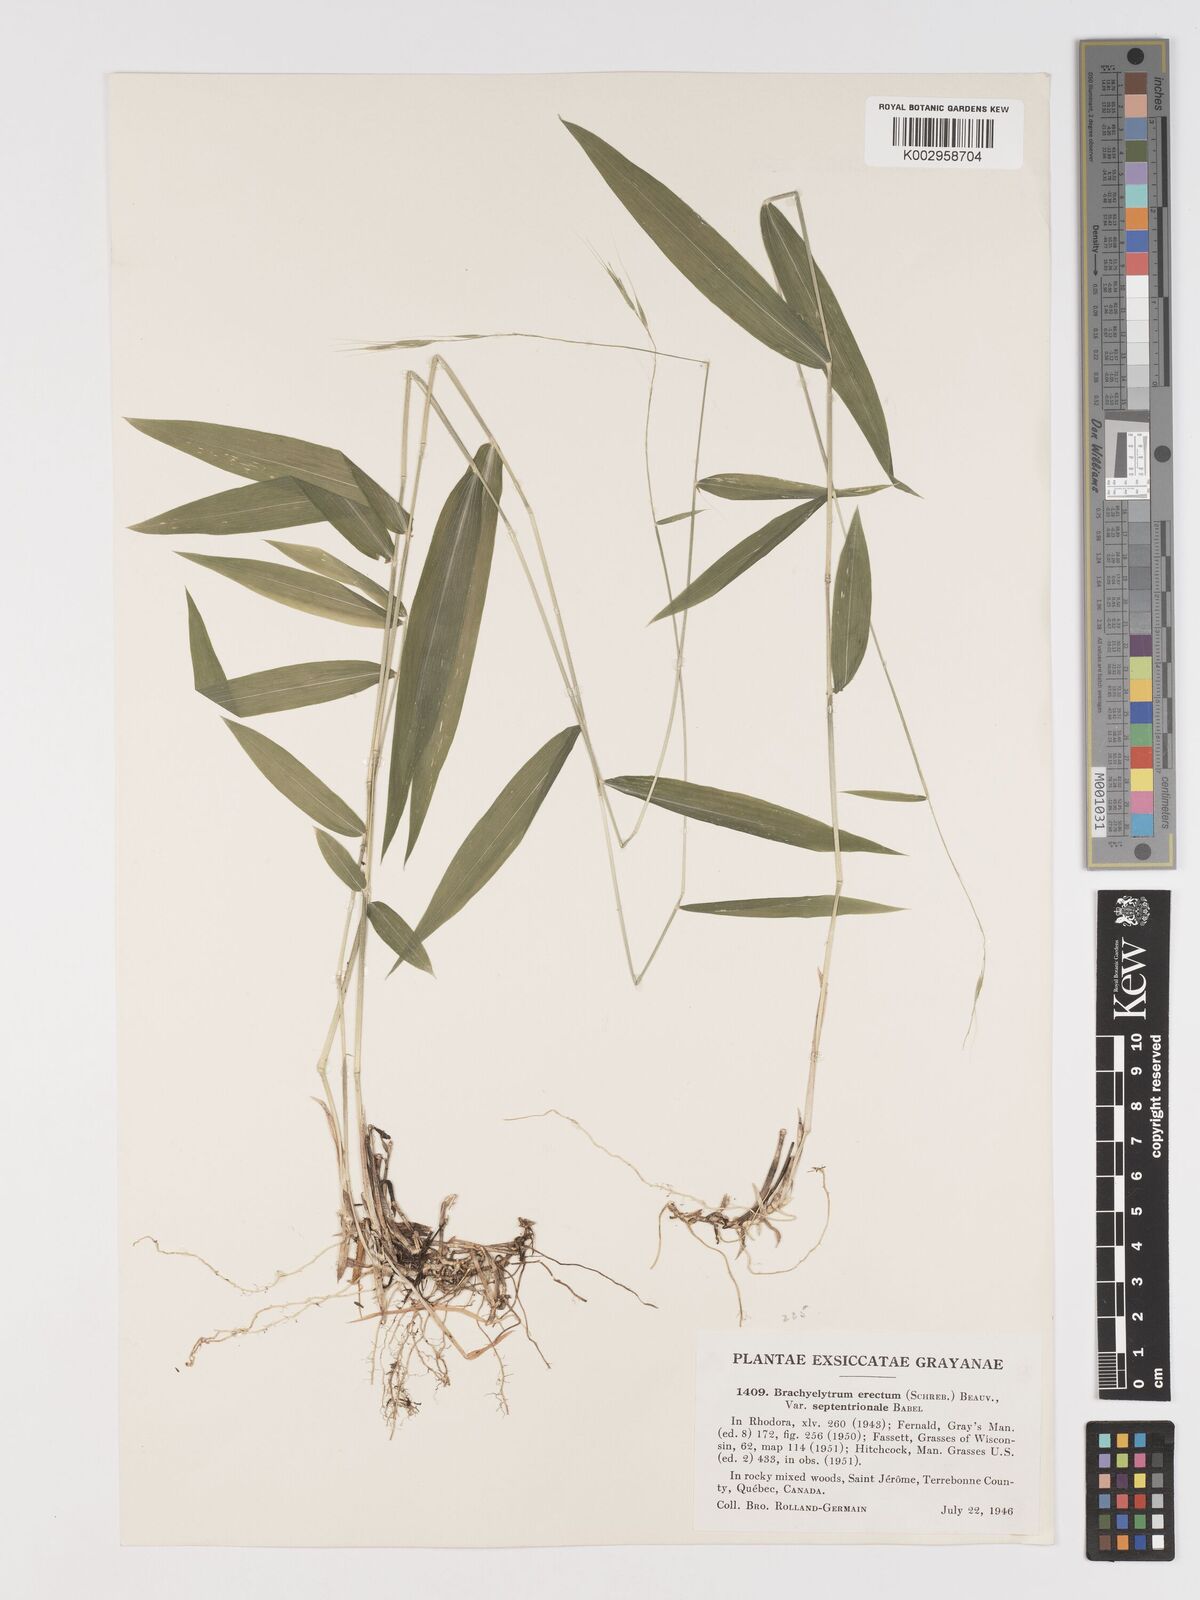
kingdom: Plantae
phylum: Tracheophyta
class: Liliopsida
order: Poales
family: Poaceae
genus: Brachyelytrum
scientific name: Brachyelytrum aristosum
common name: Northern shorthusk
